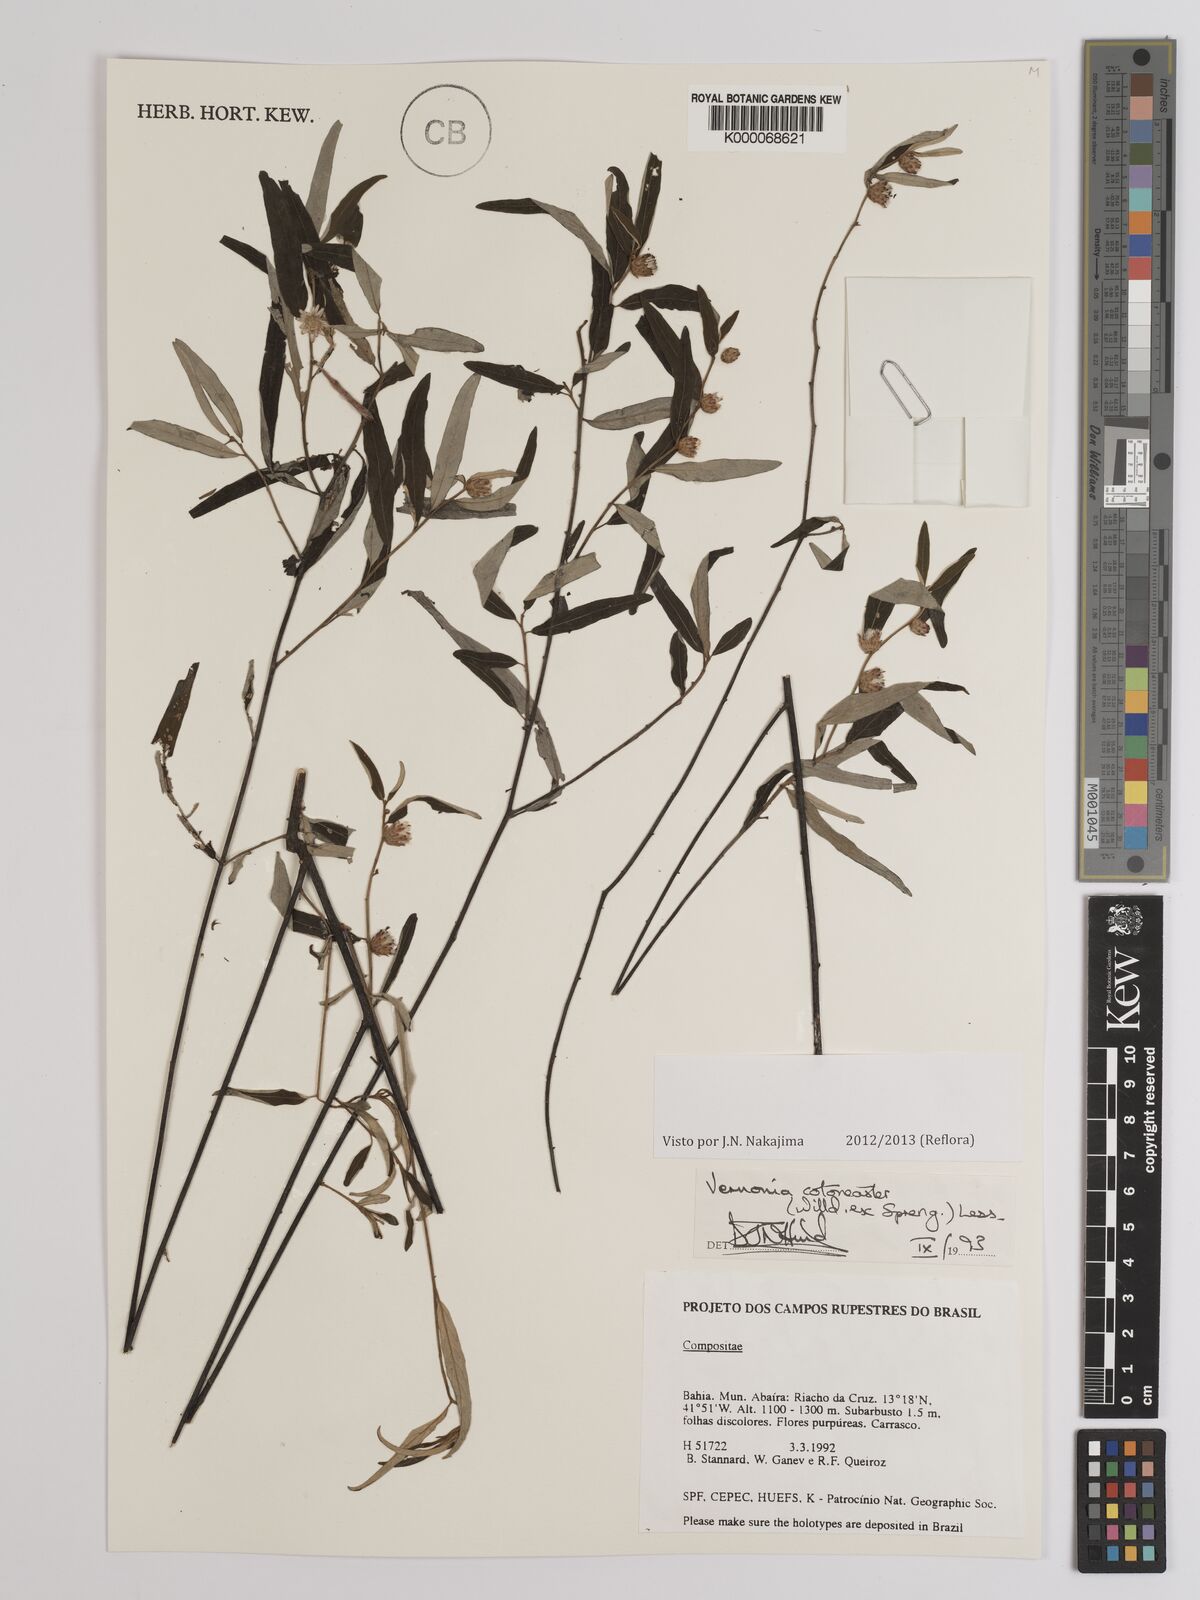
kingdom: Plantae
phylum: Tracheophyta
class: Magnoliopsida
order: Asterales
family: Asteraceae
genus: Lepidaploa
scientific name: Lepidaploa cotoneaster
